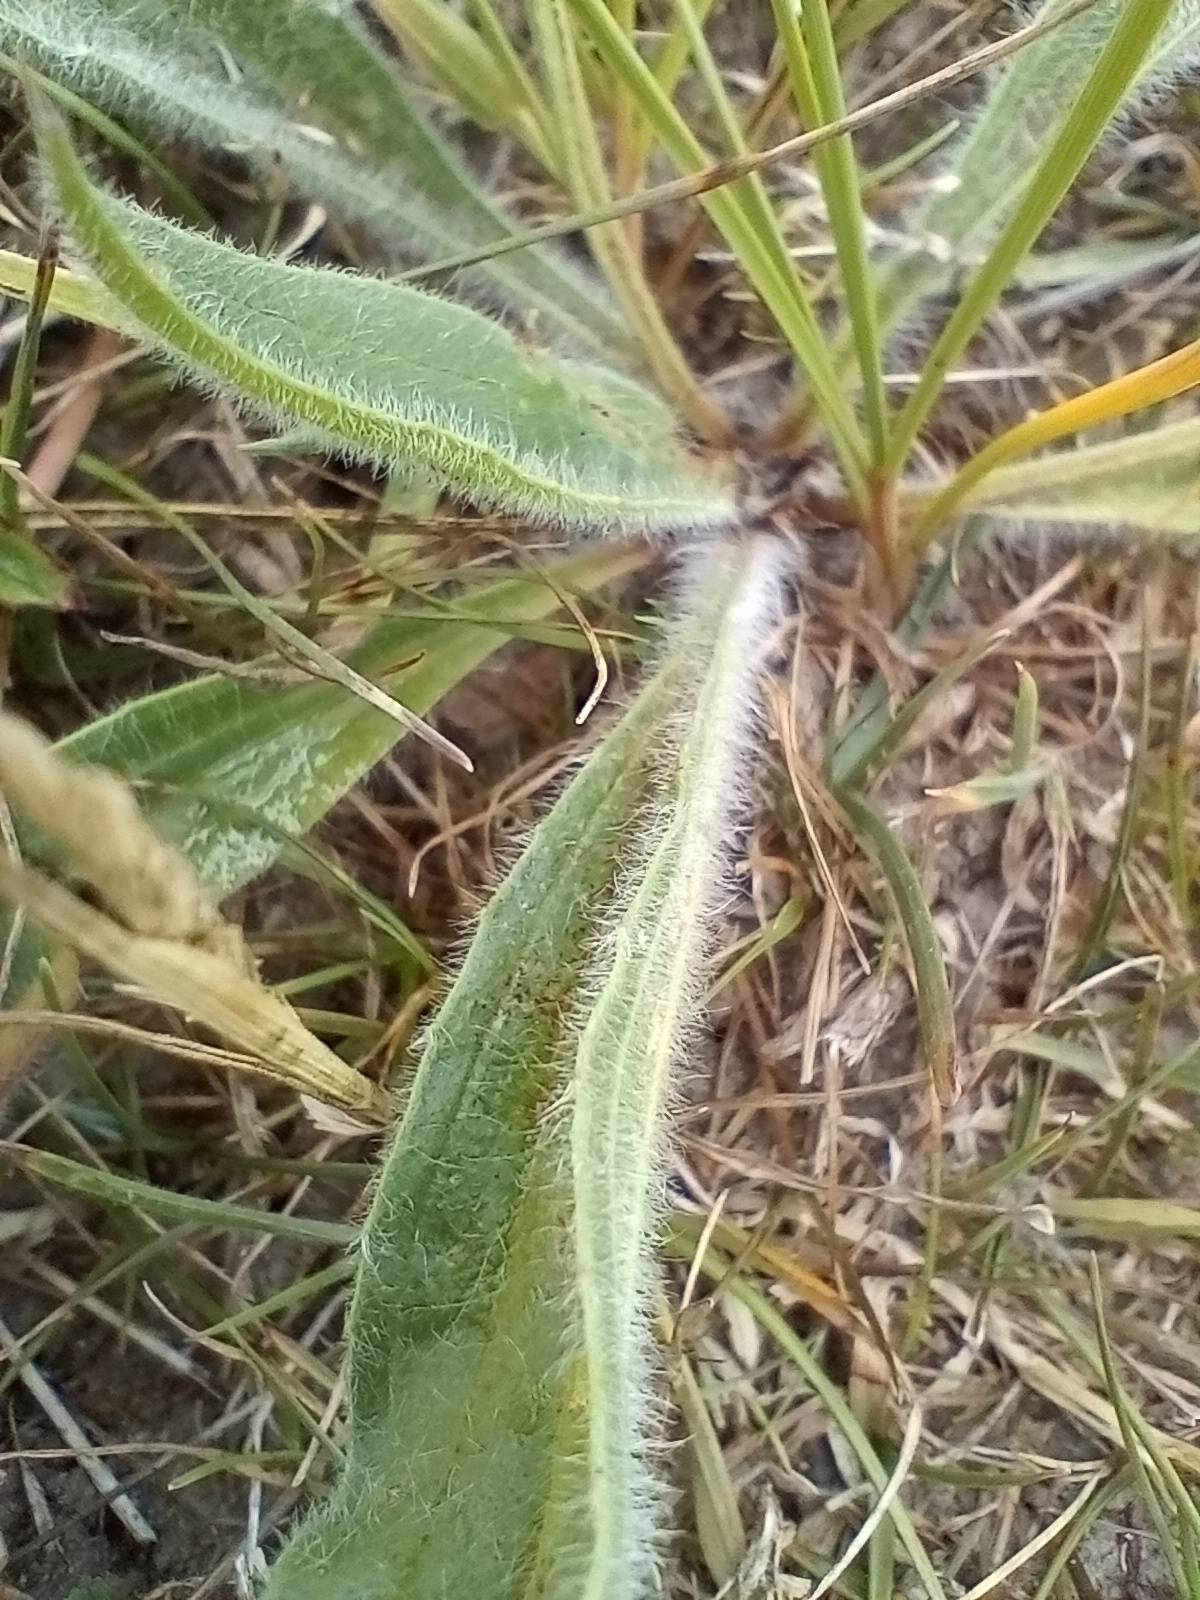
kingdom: Plantae
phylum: Tracheophyta
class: Magnoliopsida
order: Lamiales
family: Plantaginaceae
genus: Plantago
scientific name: Plantago lanceolata
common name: Lancet-vejbred
